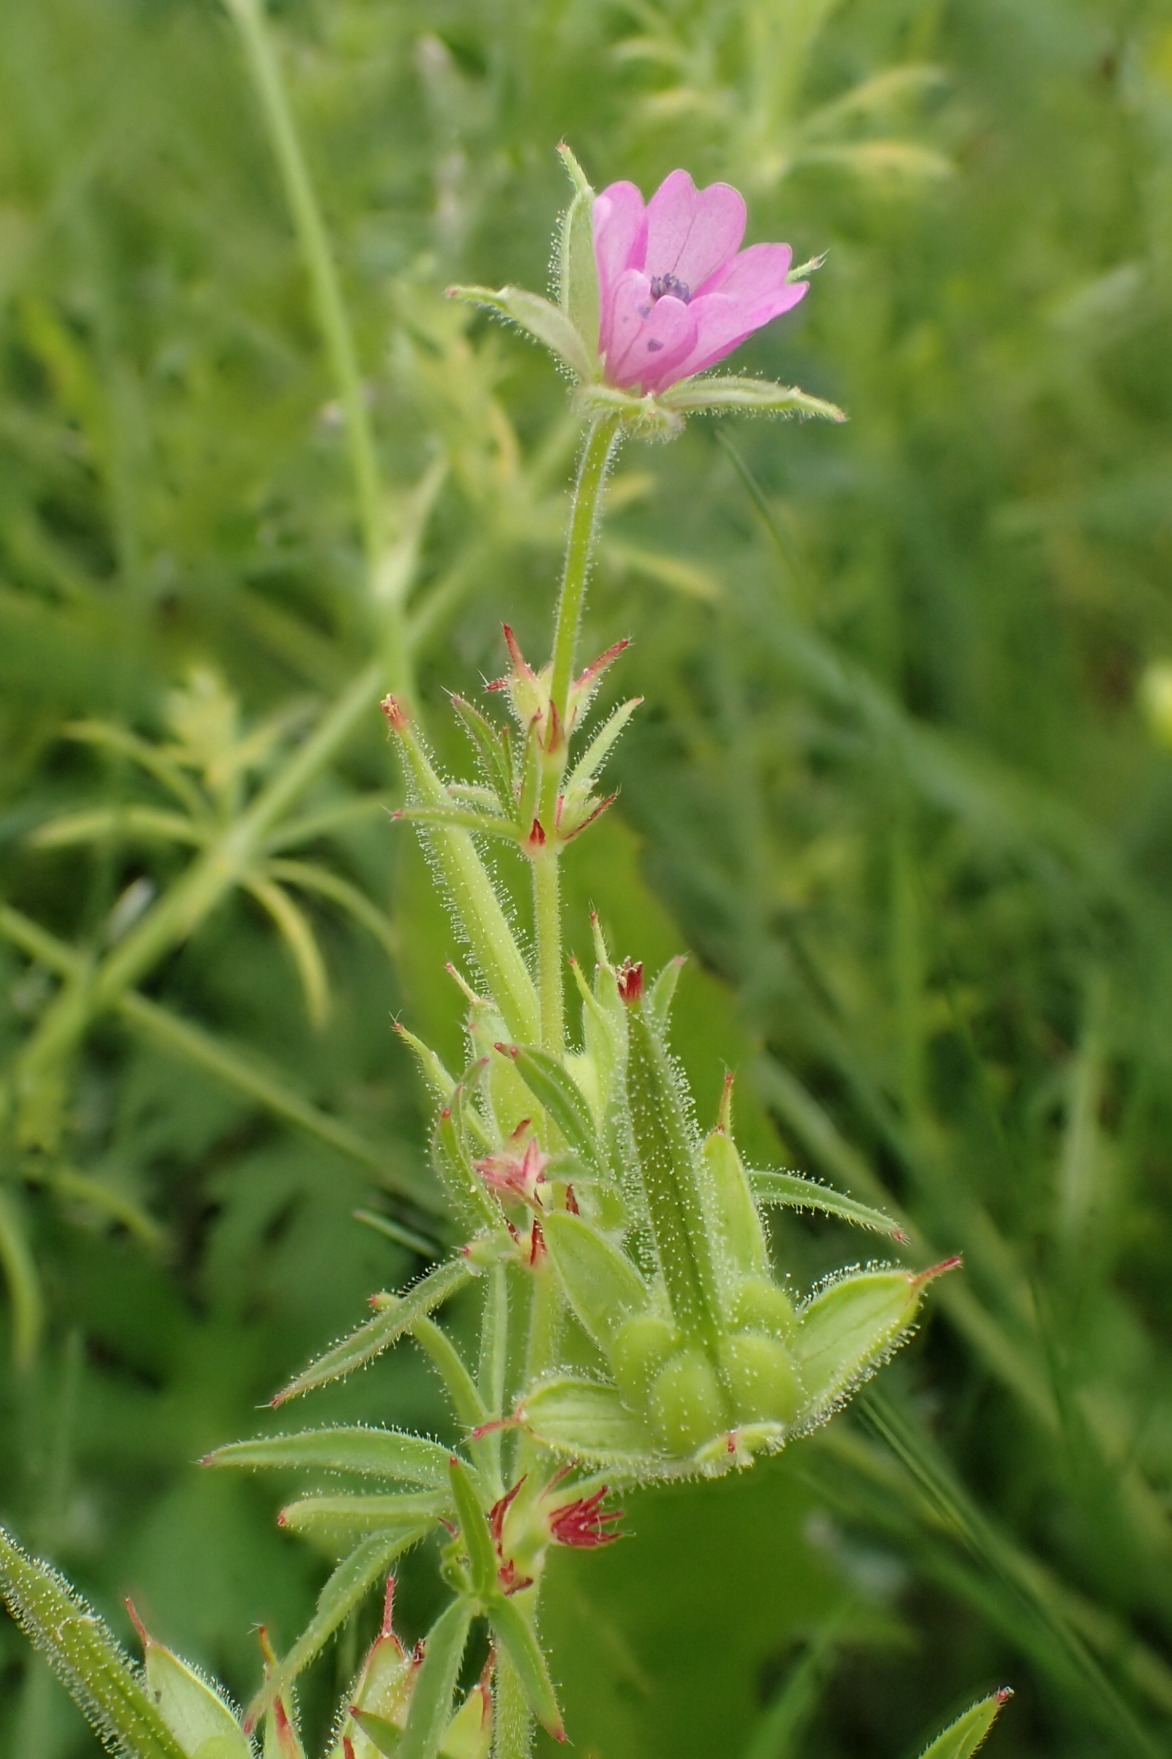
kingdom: Plantae
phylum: Tracheophyta
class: Magnoliopsida
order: Geraniales
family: Geraniaceae
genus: Geranium
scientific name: Geranium dissectum
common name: Kløftet storkenæb
